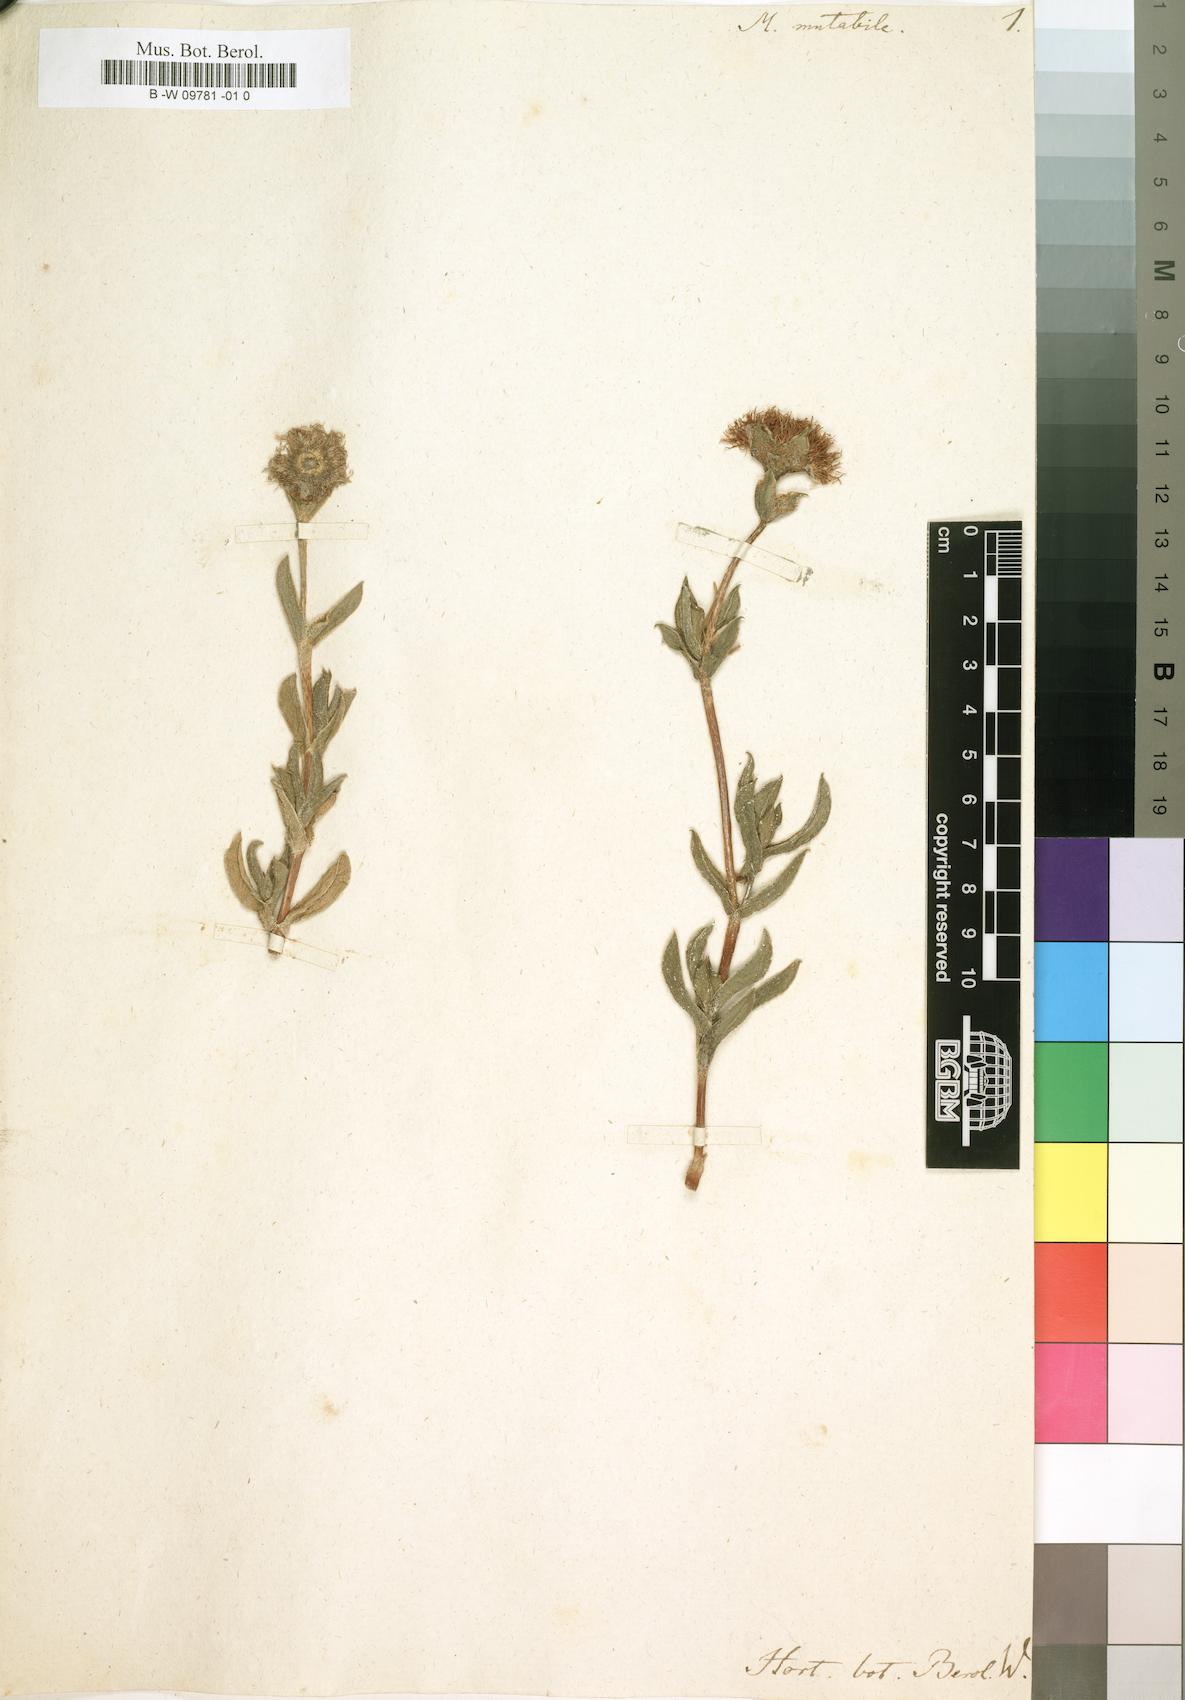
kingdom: Plantae
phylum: Tracheophyta
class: Magnoliopsida
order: Caryophyllales
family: Aizoaceae
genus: Erepsia
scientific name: Erepsia forficata
